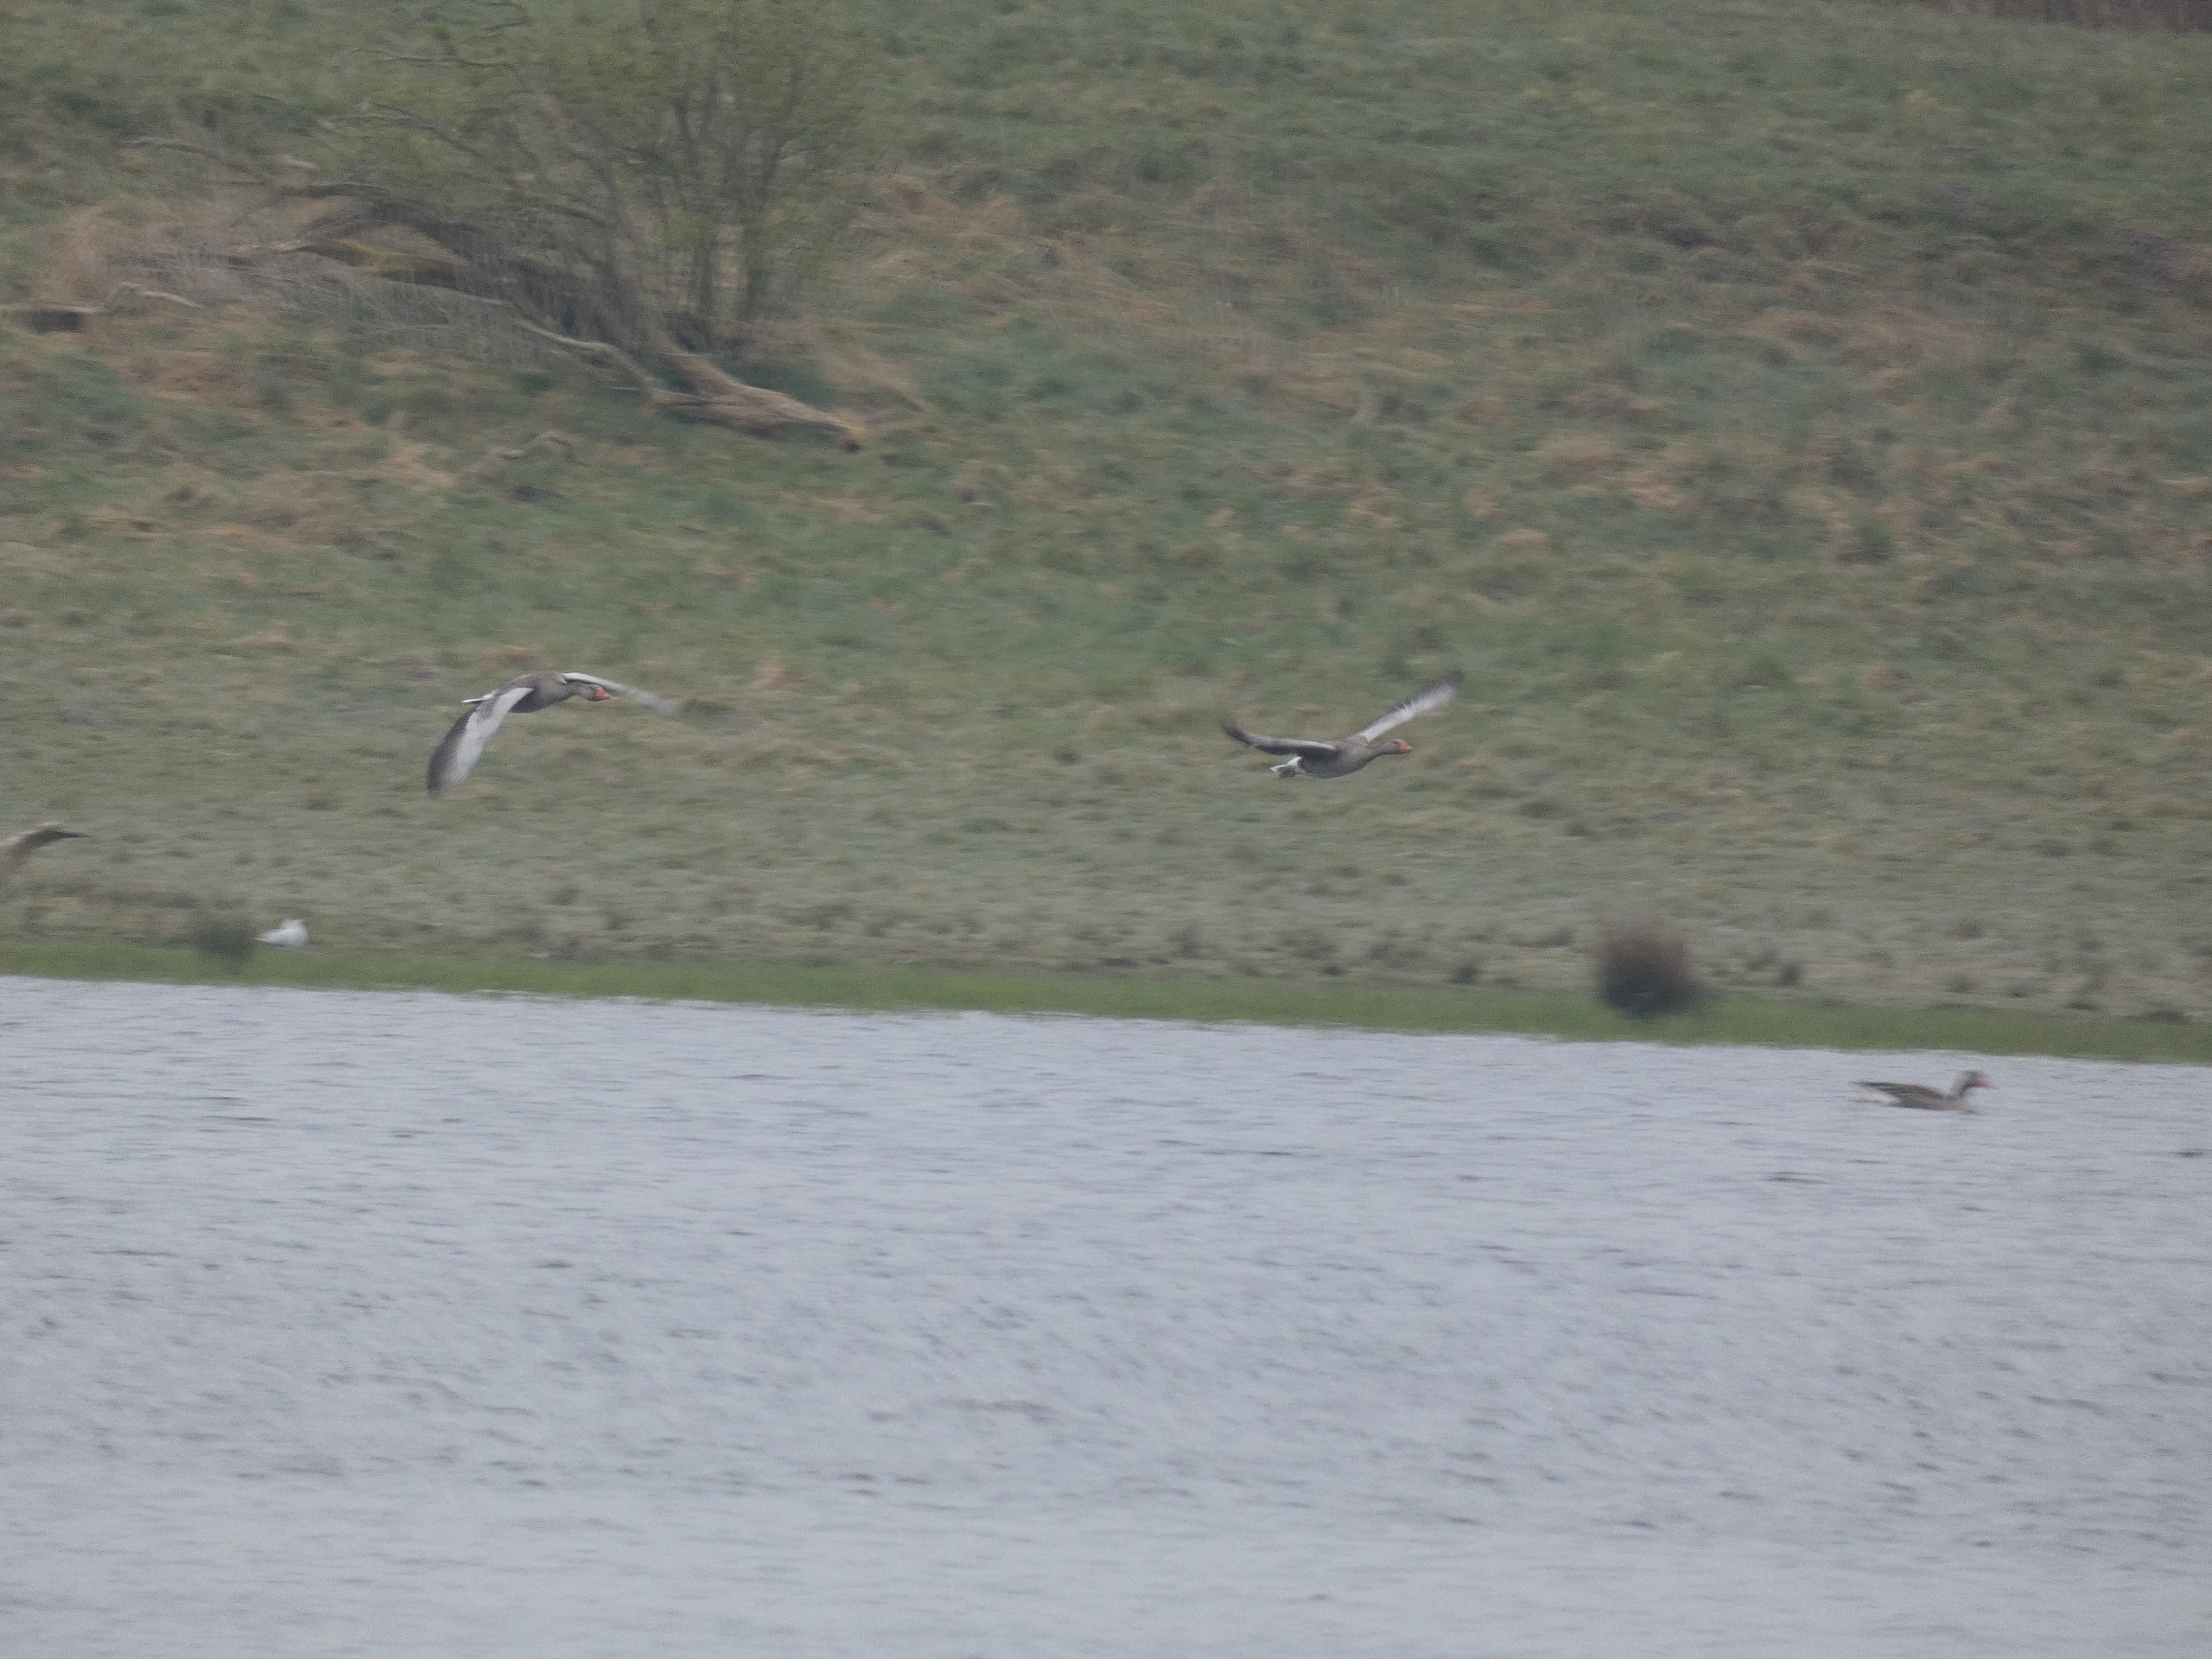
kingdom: Animalia
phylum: Chordata
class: Aves
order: Anseriformes
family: Anatidae
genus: Anser
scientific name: Anser anser
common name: Grågås
